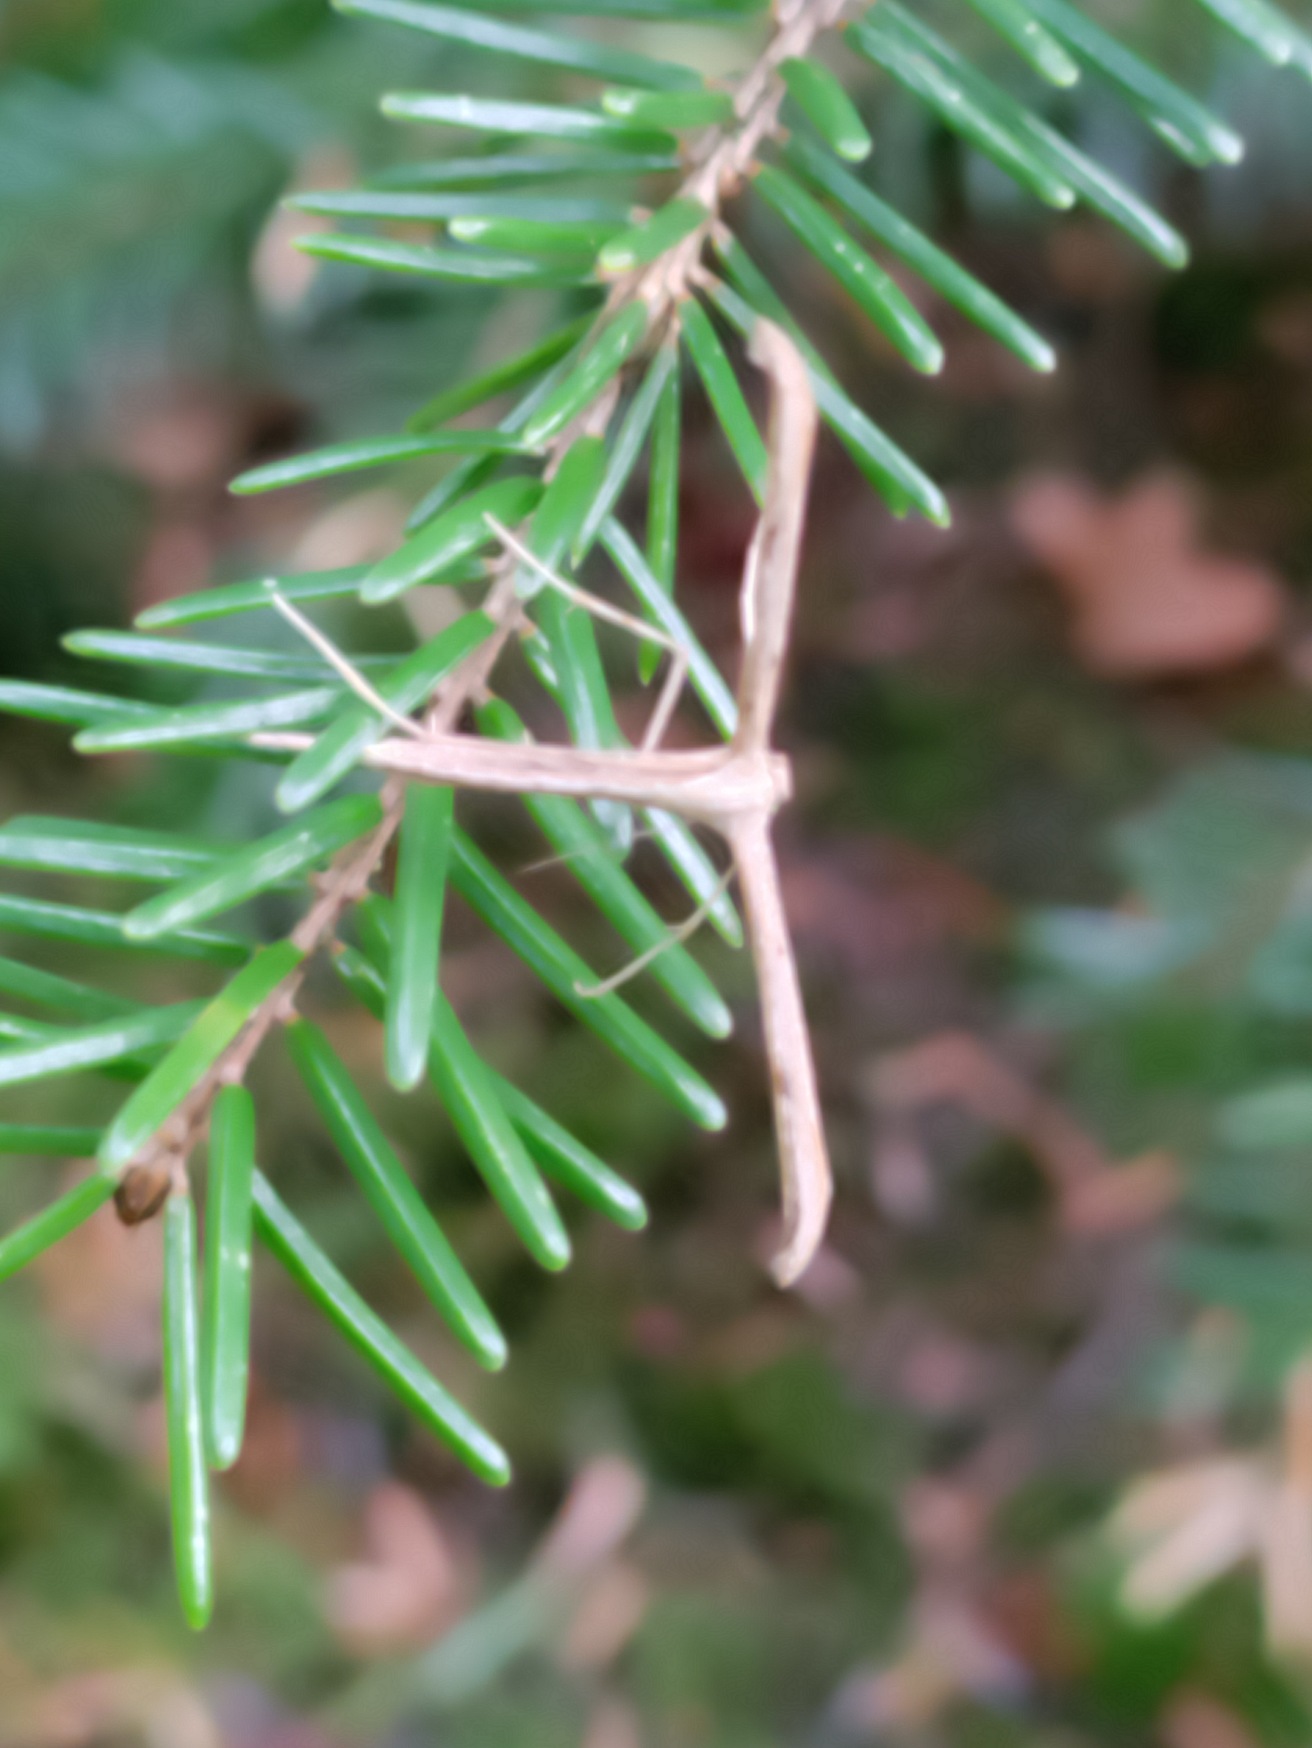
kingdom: Animalia
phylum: Arthropoda
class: Insecta
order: Lepidoptera
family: Pterophoridae
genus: Emmelina
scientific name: Emmelina monodactyla
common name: Snerlefjermøl
